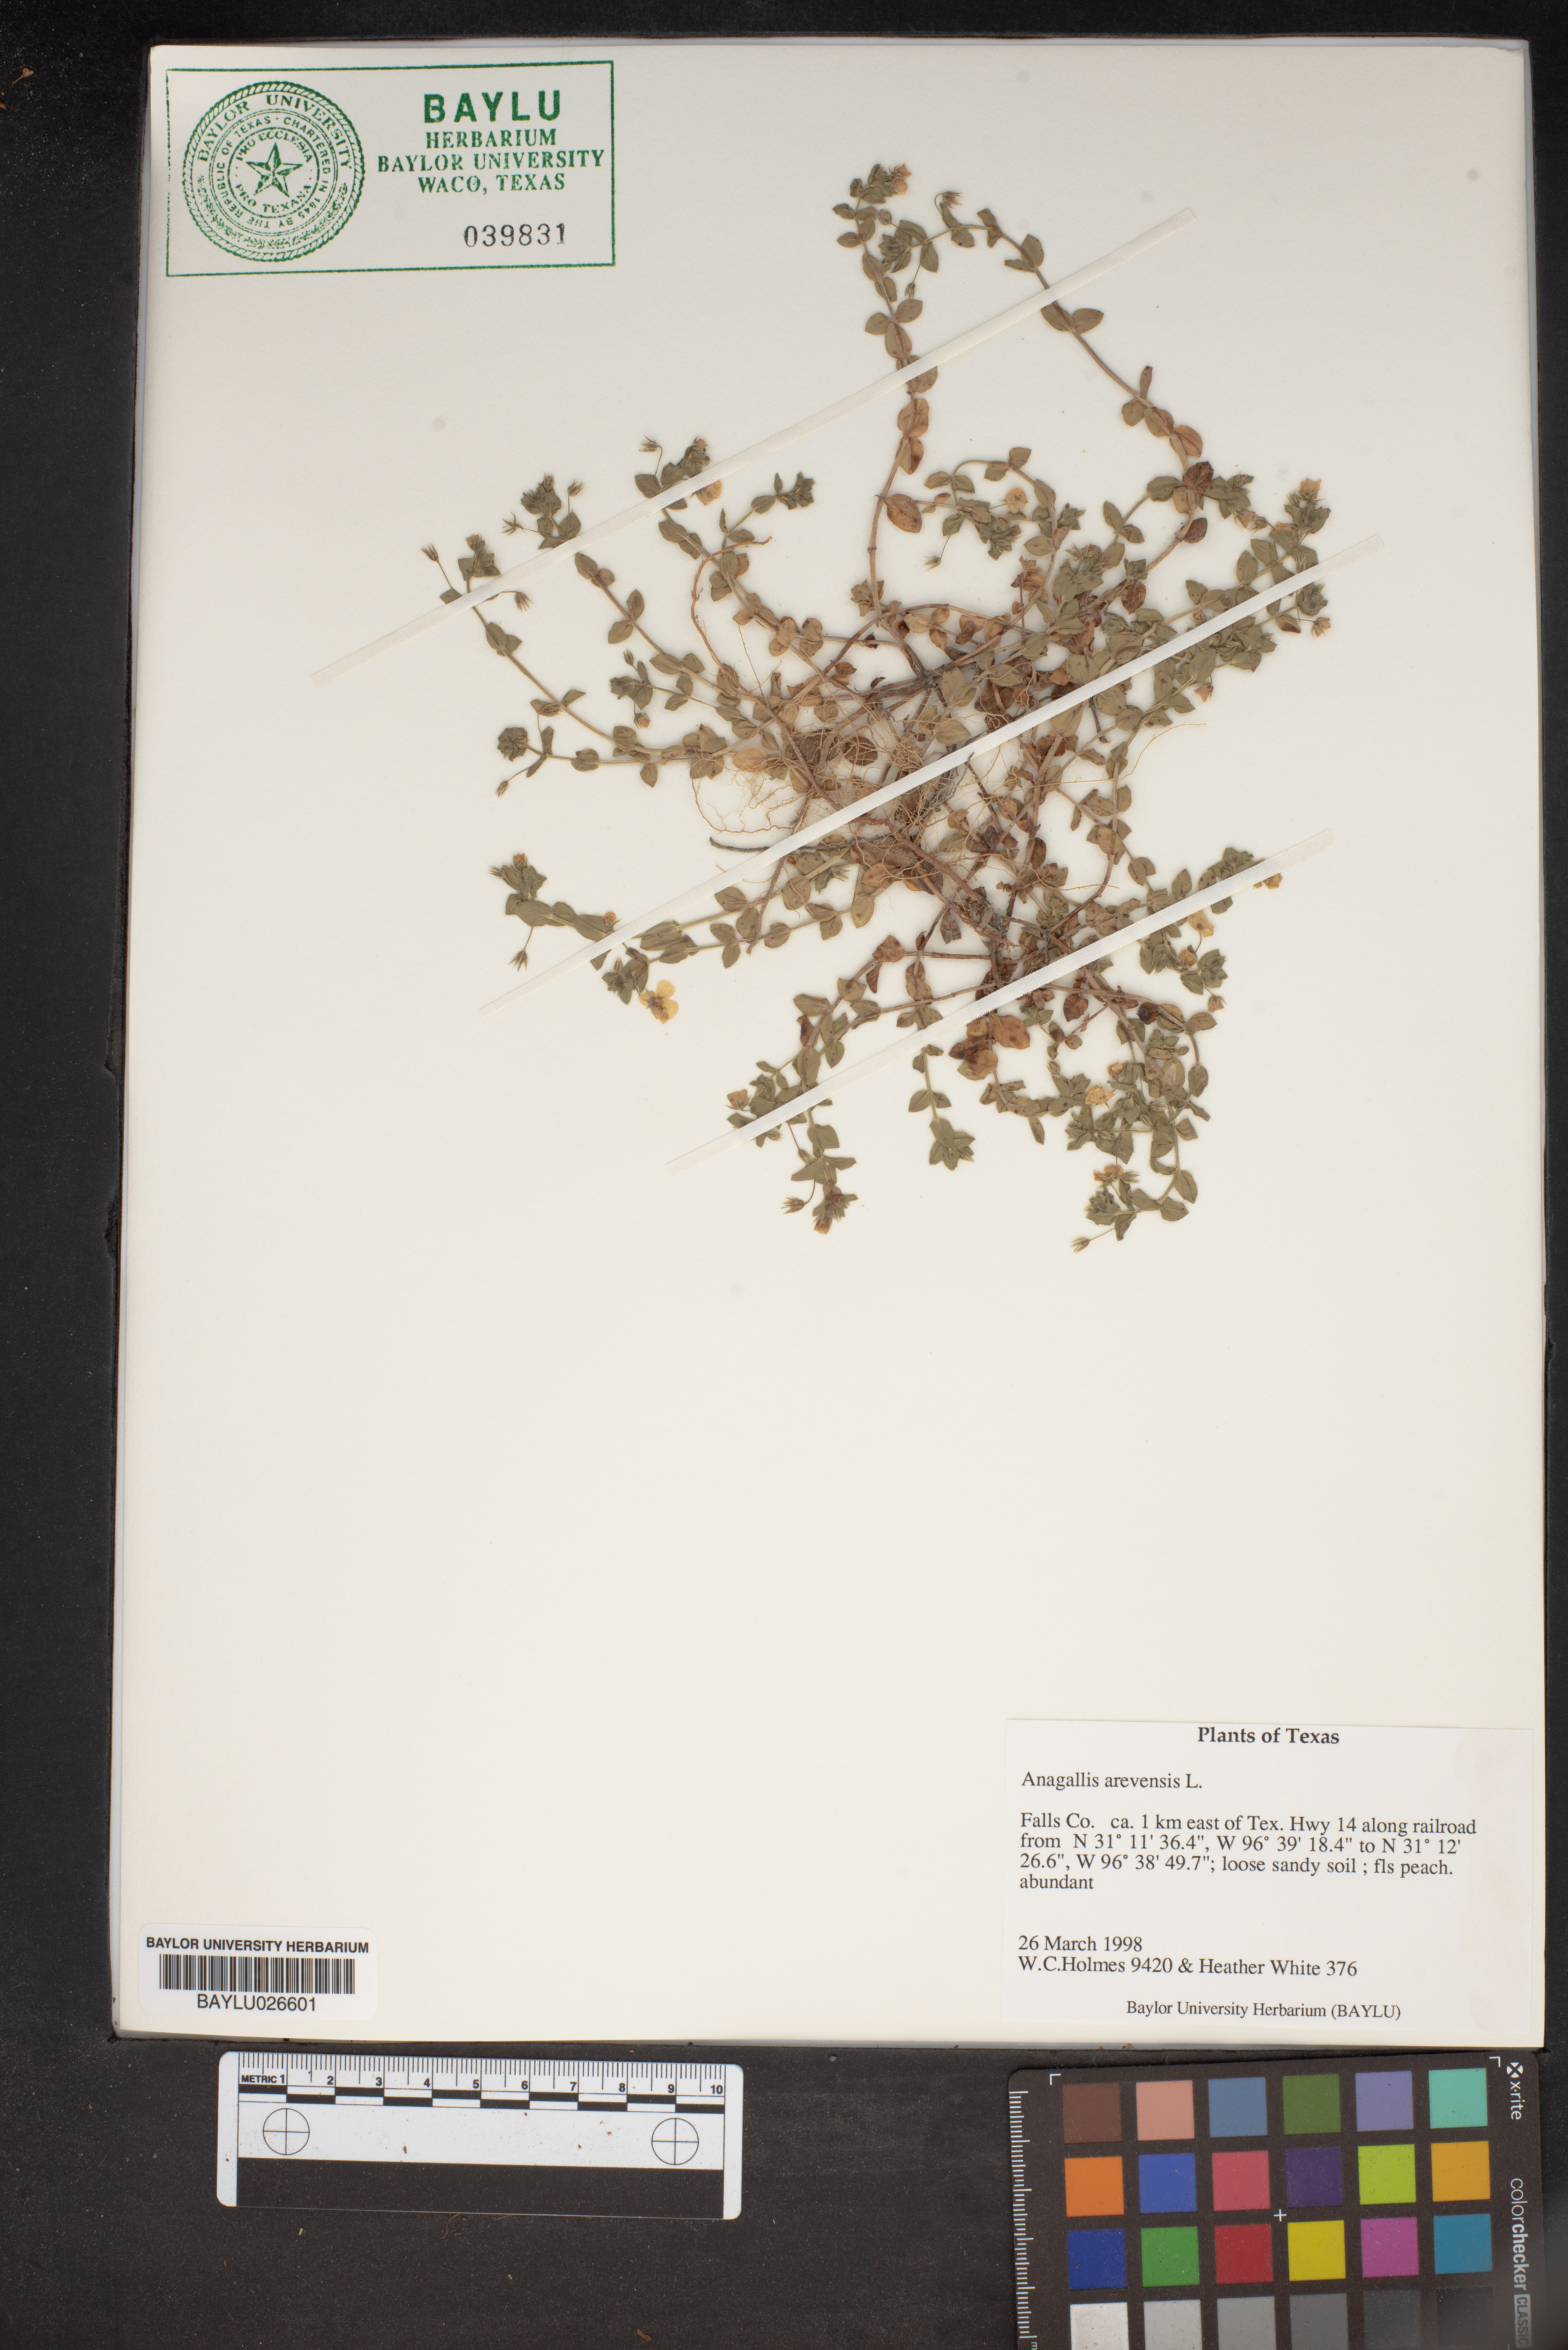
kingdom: Plantae
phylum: Tracheophyta
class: Magnoliopsida
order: Ericales
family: Primulaceae
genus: Lysimachia
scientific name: Lysimachia arvensis
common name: Scarlet pimpernel
